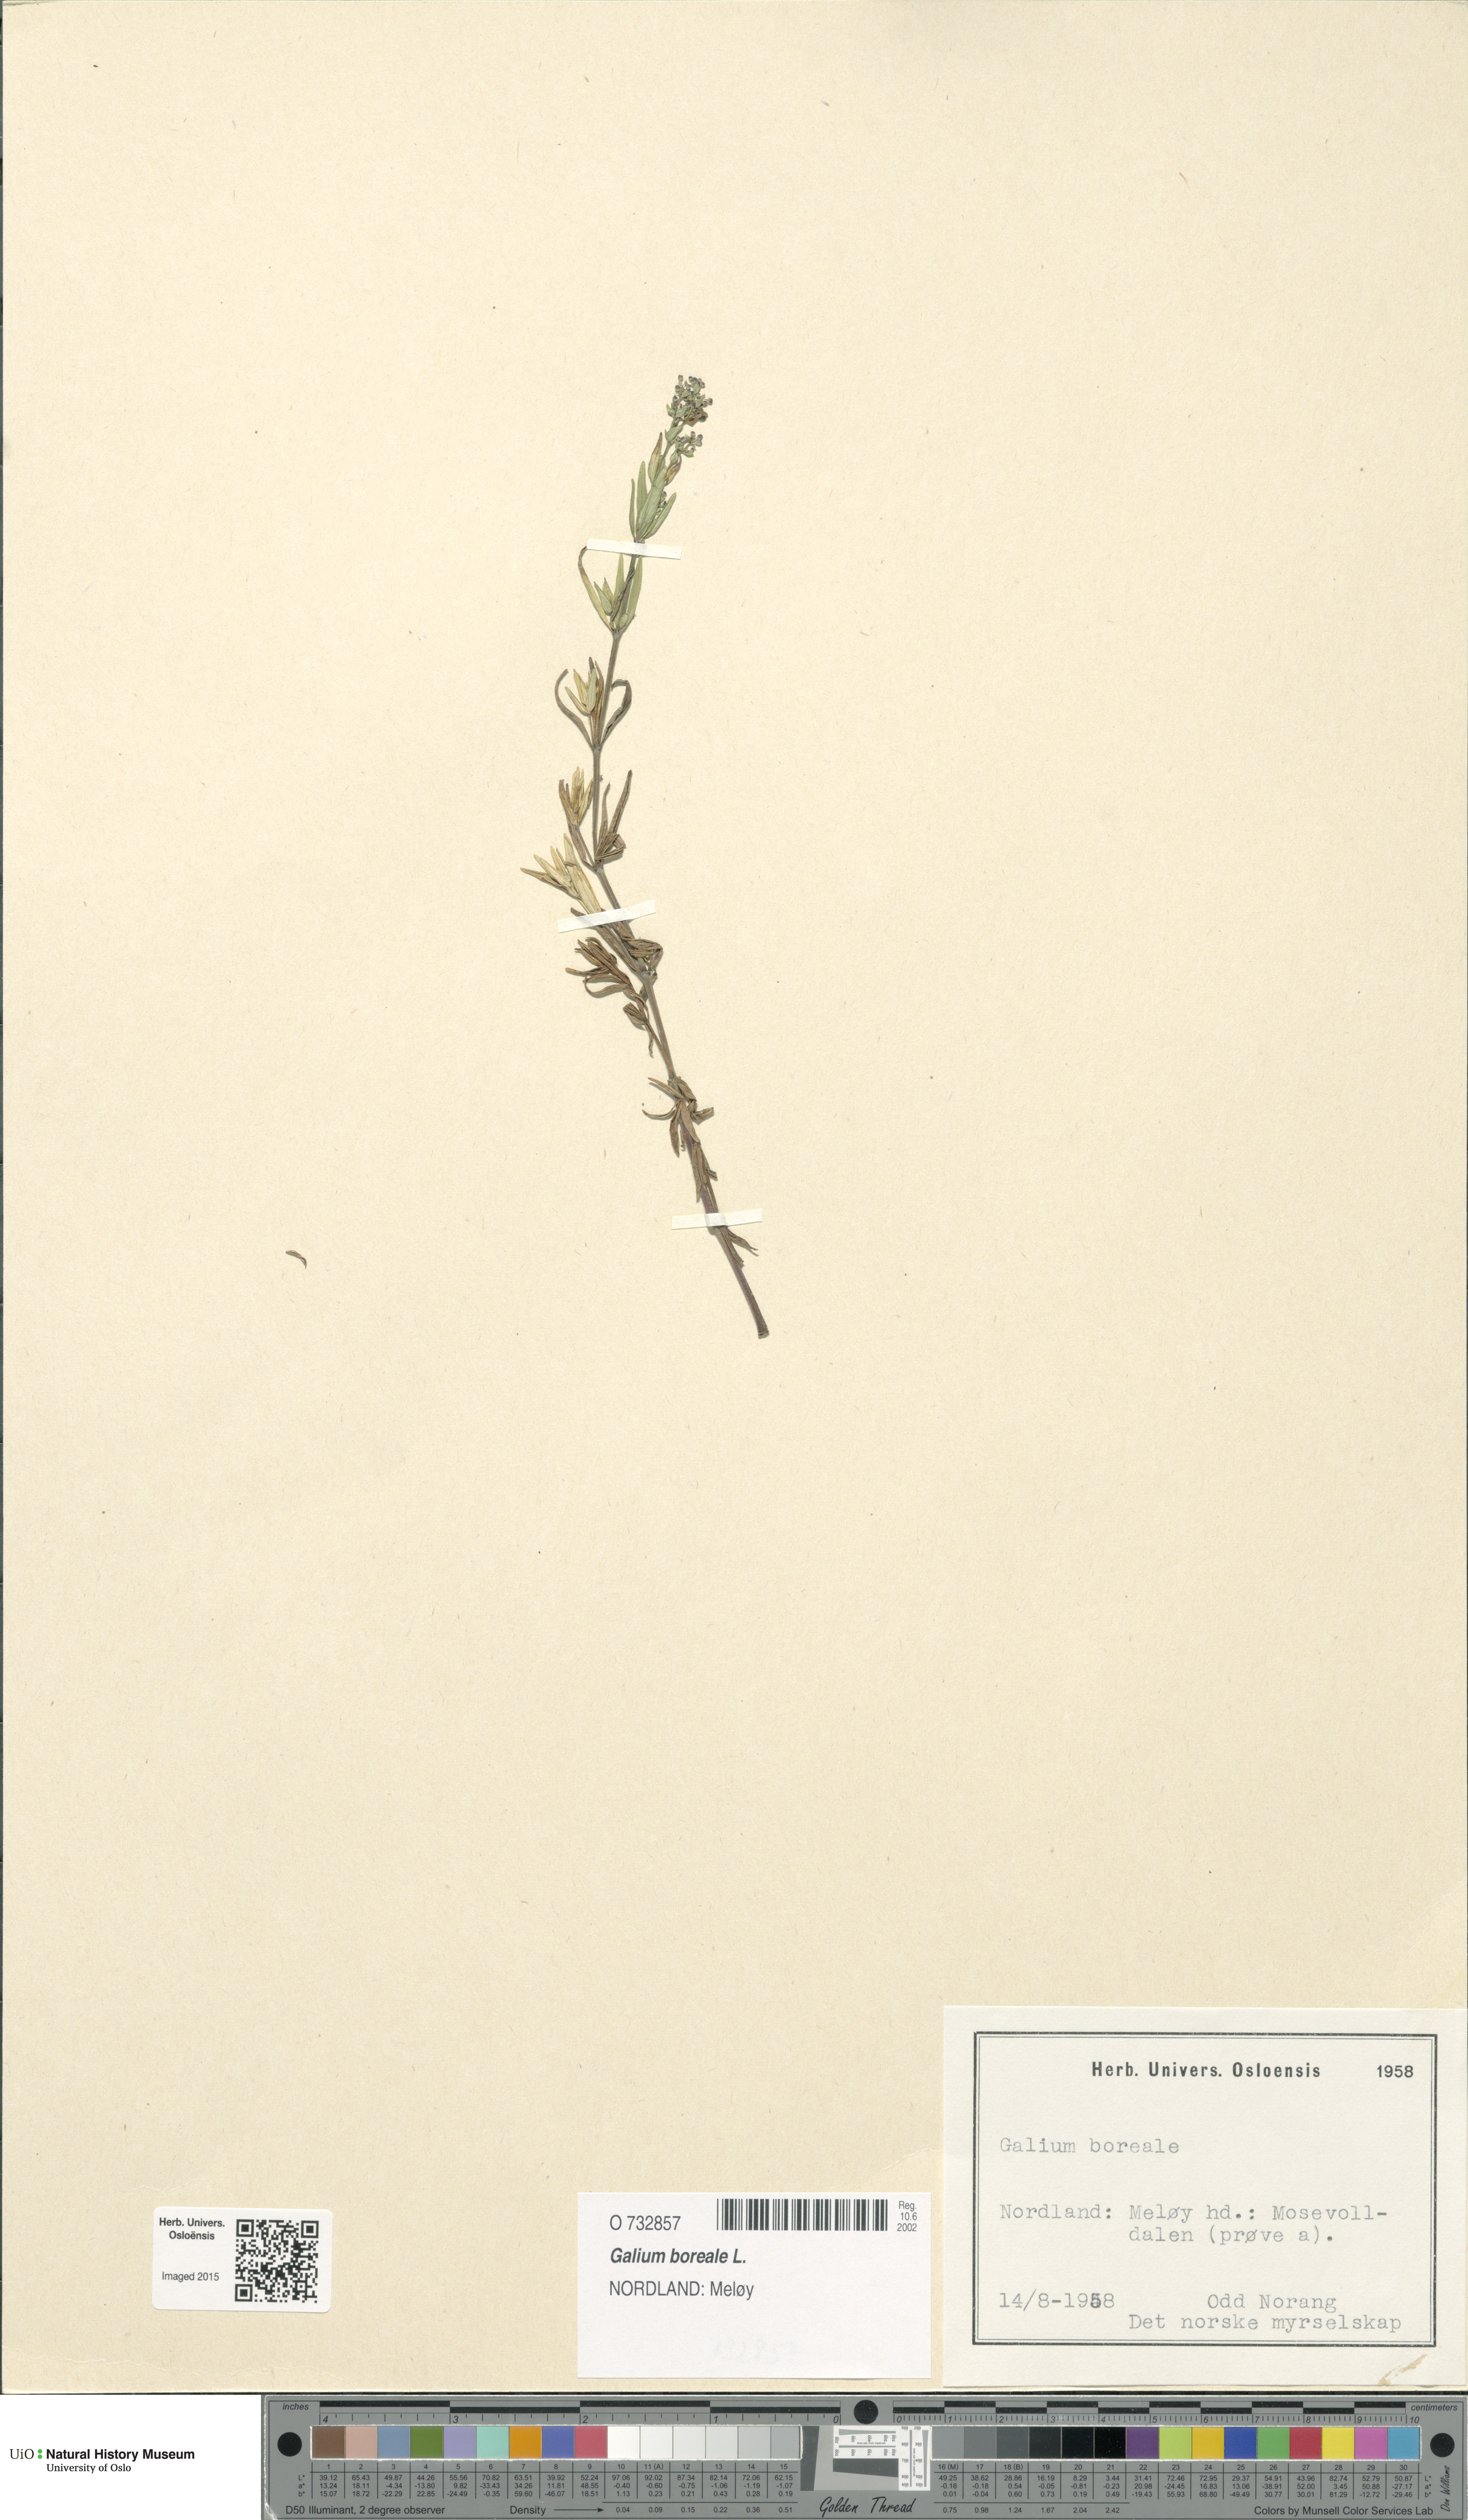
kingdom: Plantae
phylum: Tracheophyta
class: Magnoliopsida
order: Gentianales
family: Rubiaceae
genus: Galium
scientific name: Galium boreale
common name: Northern bedstraw
